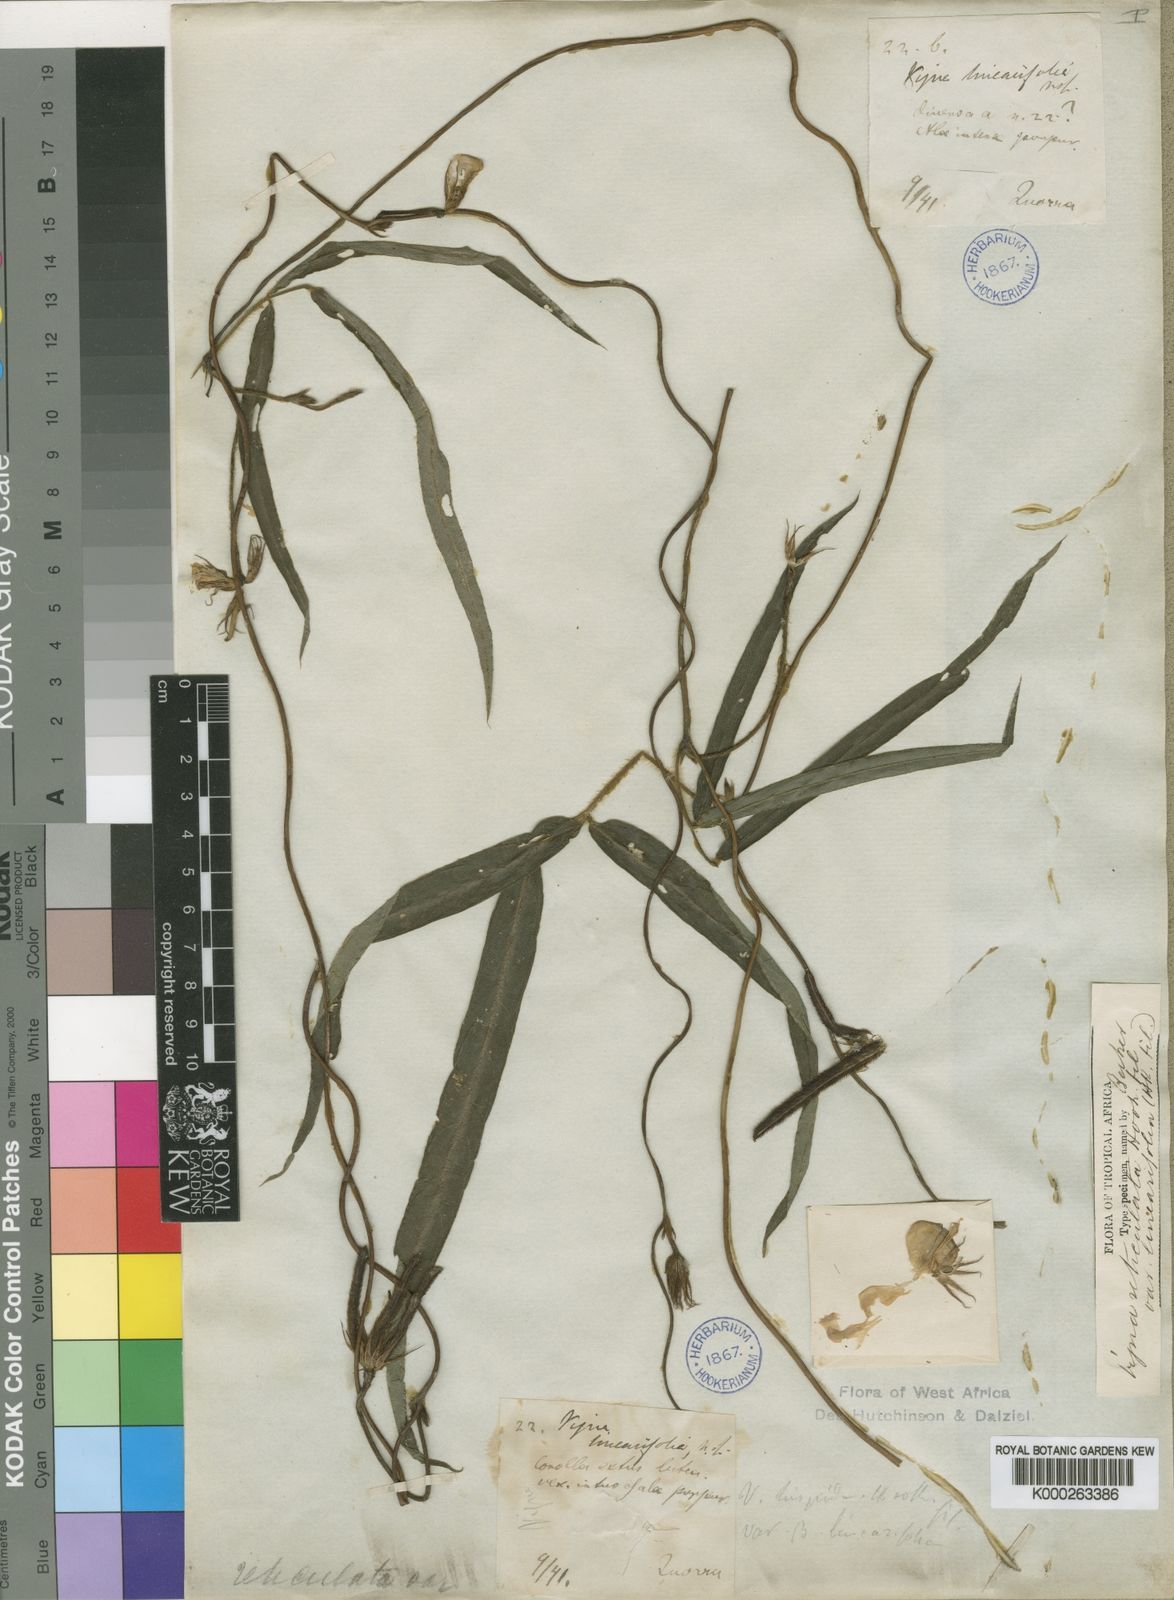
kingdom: Plantae
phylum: Tracheophyta
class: Magnoliopsida
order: Fabales
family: Fabaceae
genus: Vigna
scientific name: Vigna reticulata
